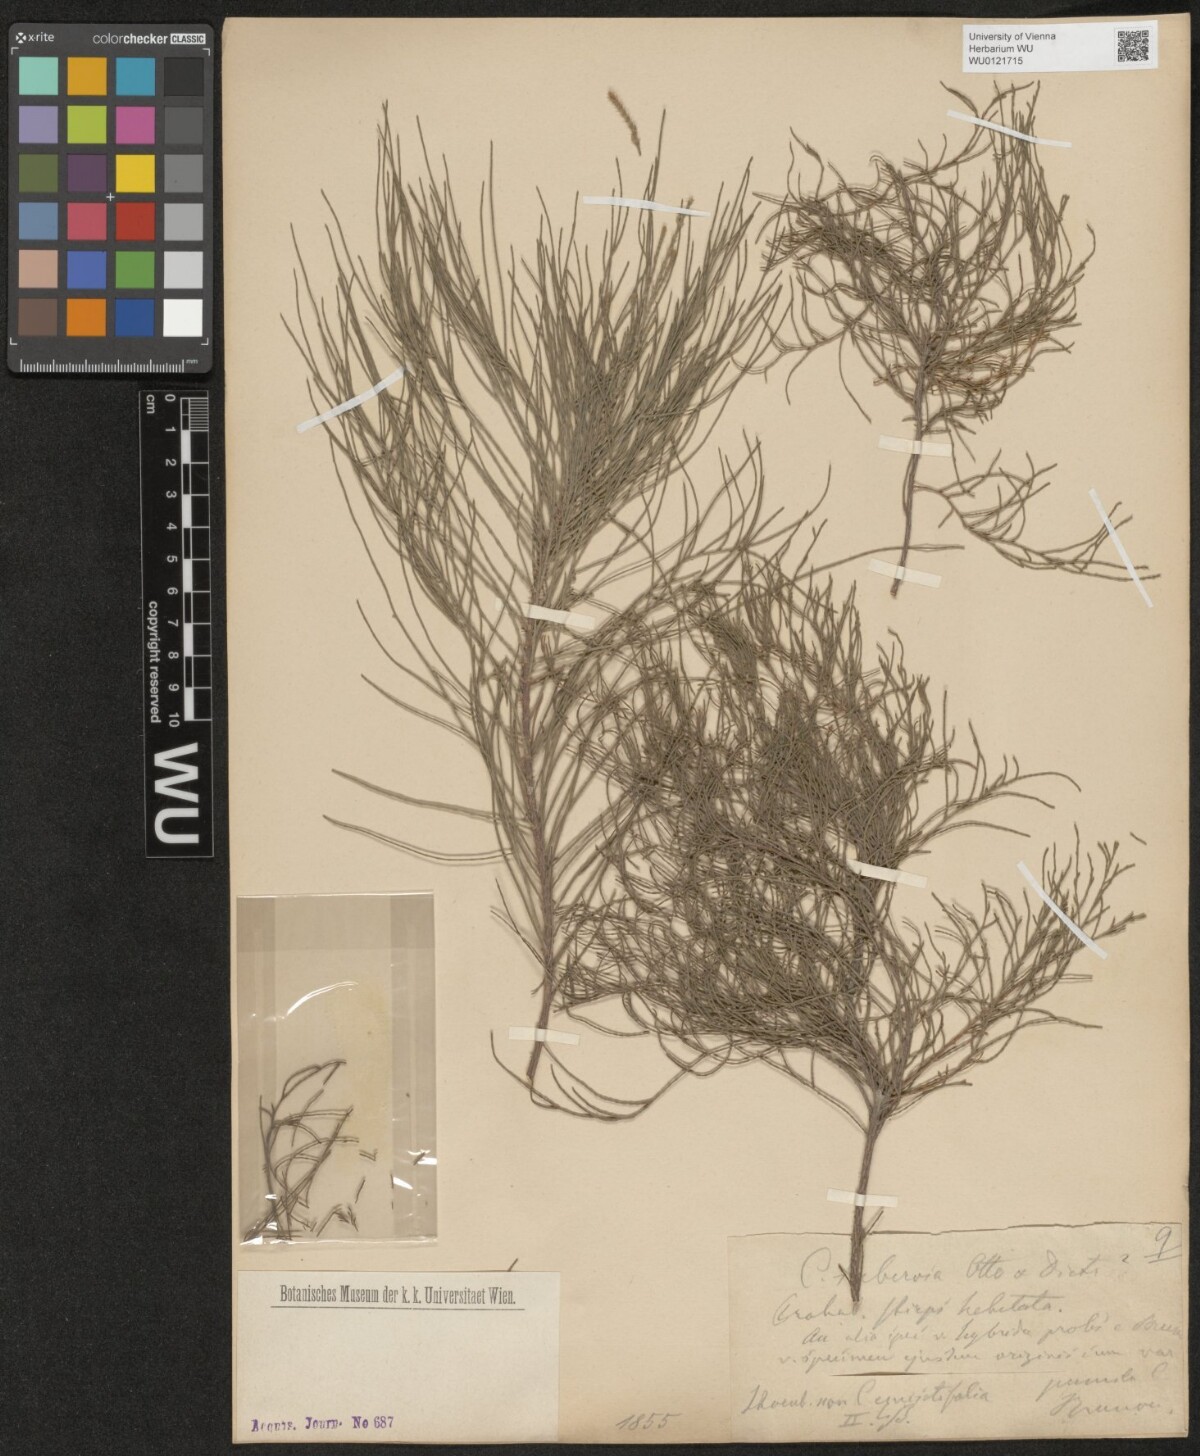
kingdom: Plantae
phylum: Tracheophyta
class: Magnoliopsida
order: Fagales
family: Casuarinaceae
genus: Allocasuarina
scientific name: Allocasuarina littoralis
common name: Black she-oak
